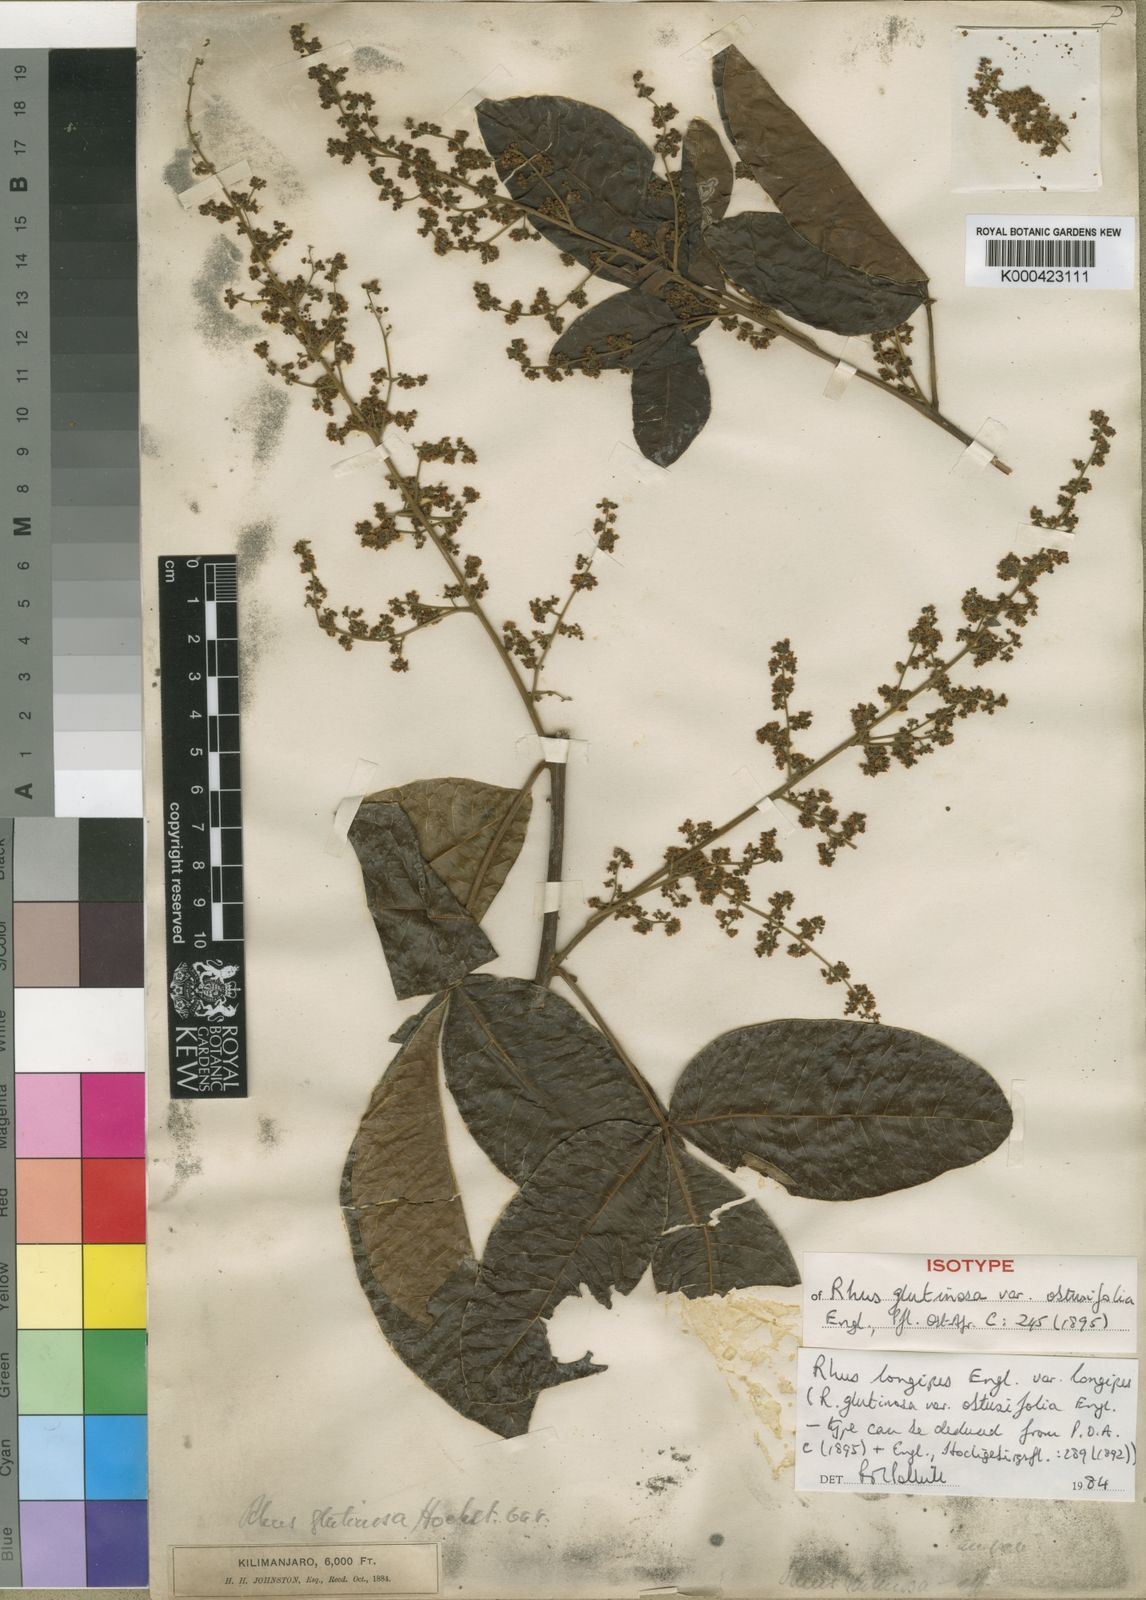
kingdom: Plantae
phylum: Tracheophyta
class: Magnoliopsida
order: Sapindales
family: Anacardiaceae
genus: Searsia
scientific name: Searsia longipes
